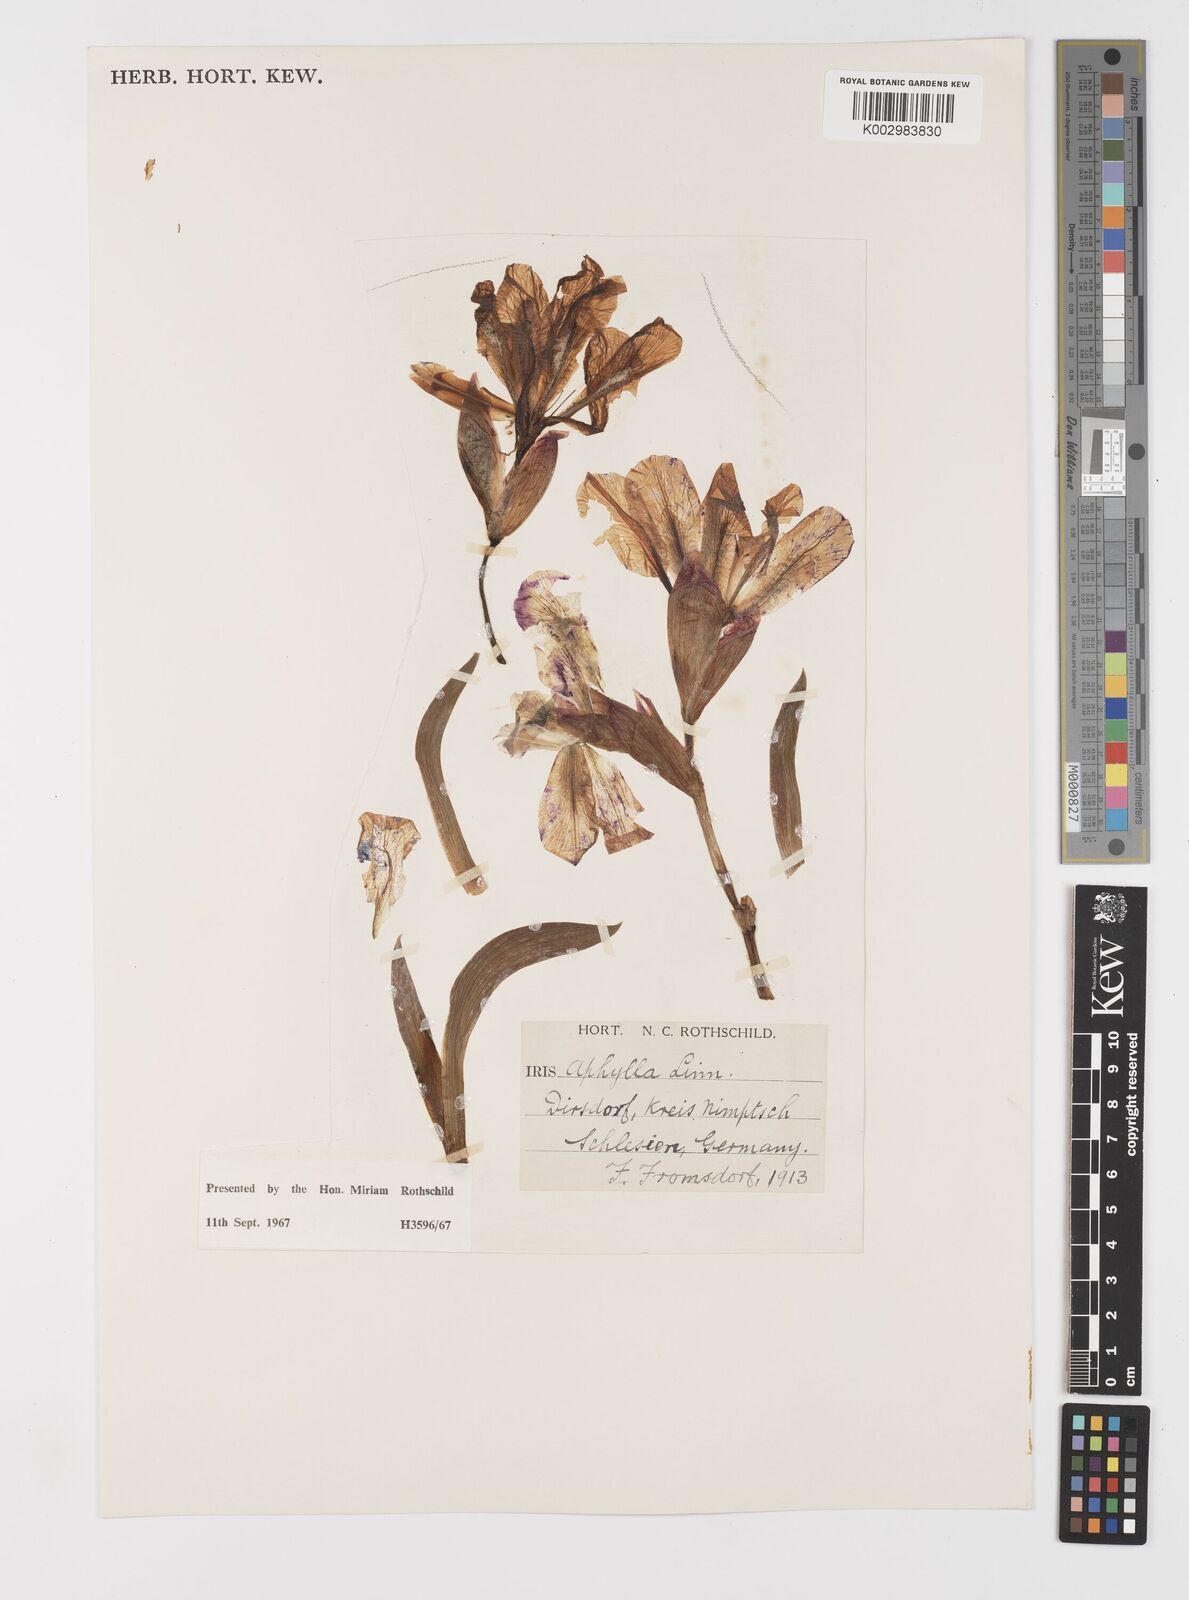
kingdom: Plantae
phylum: Tracheophyta
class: Liliopsida
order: Asparagales
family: Iridaceae
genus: Iris
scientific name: Iris aphylla
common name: Stool iris
